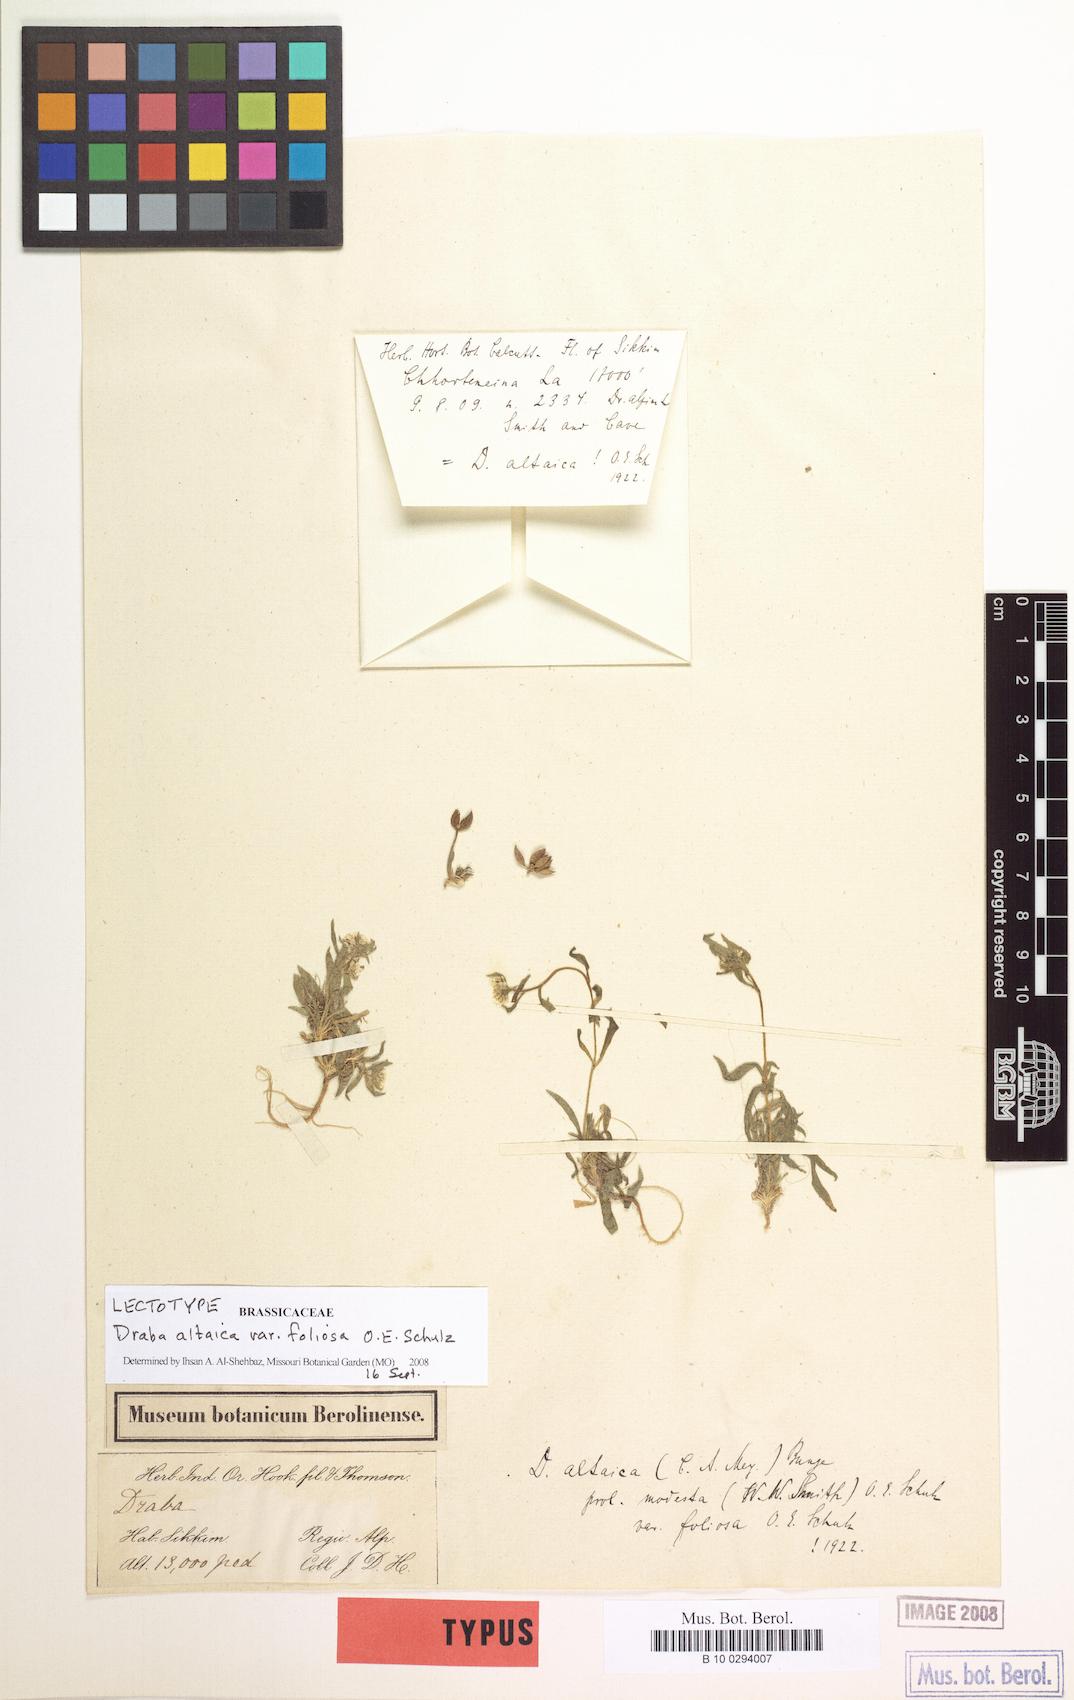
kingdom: Plantae
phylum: Tracheophyta
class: Magnoliopsida
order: Brassicales
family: Brassicaceae
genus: Draba
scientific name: Draba altaica
